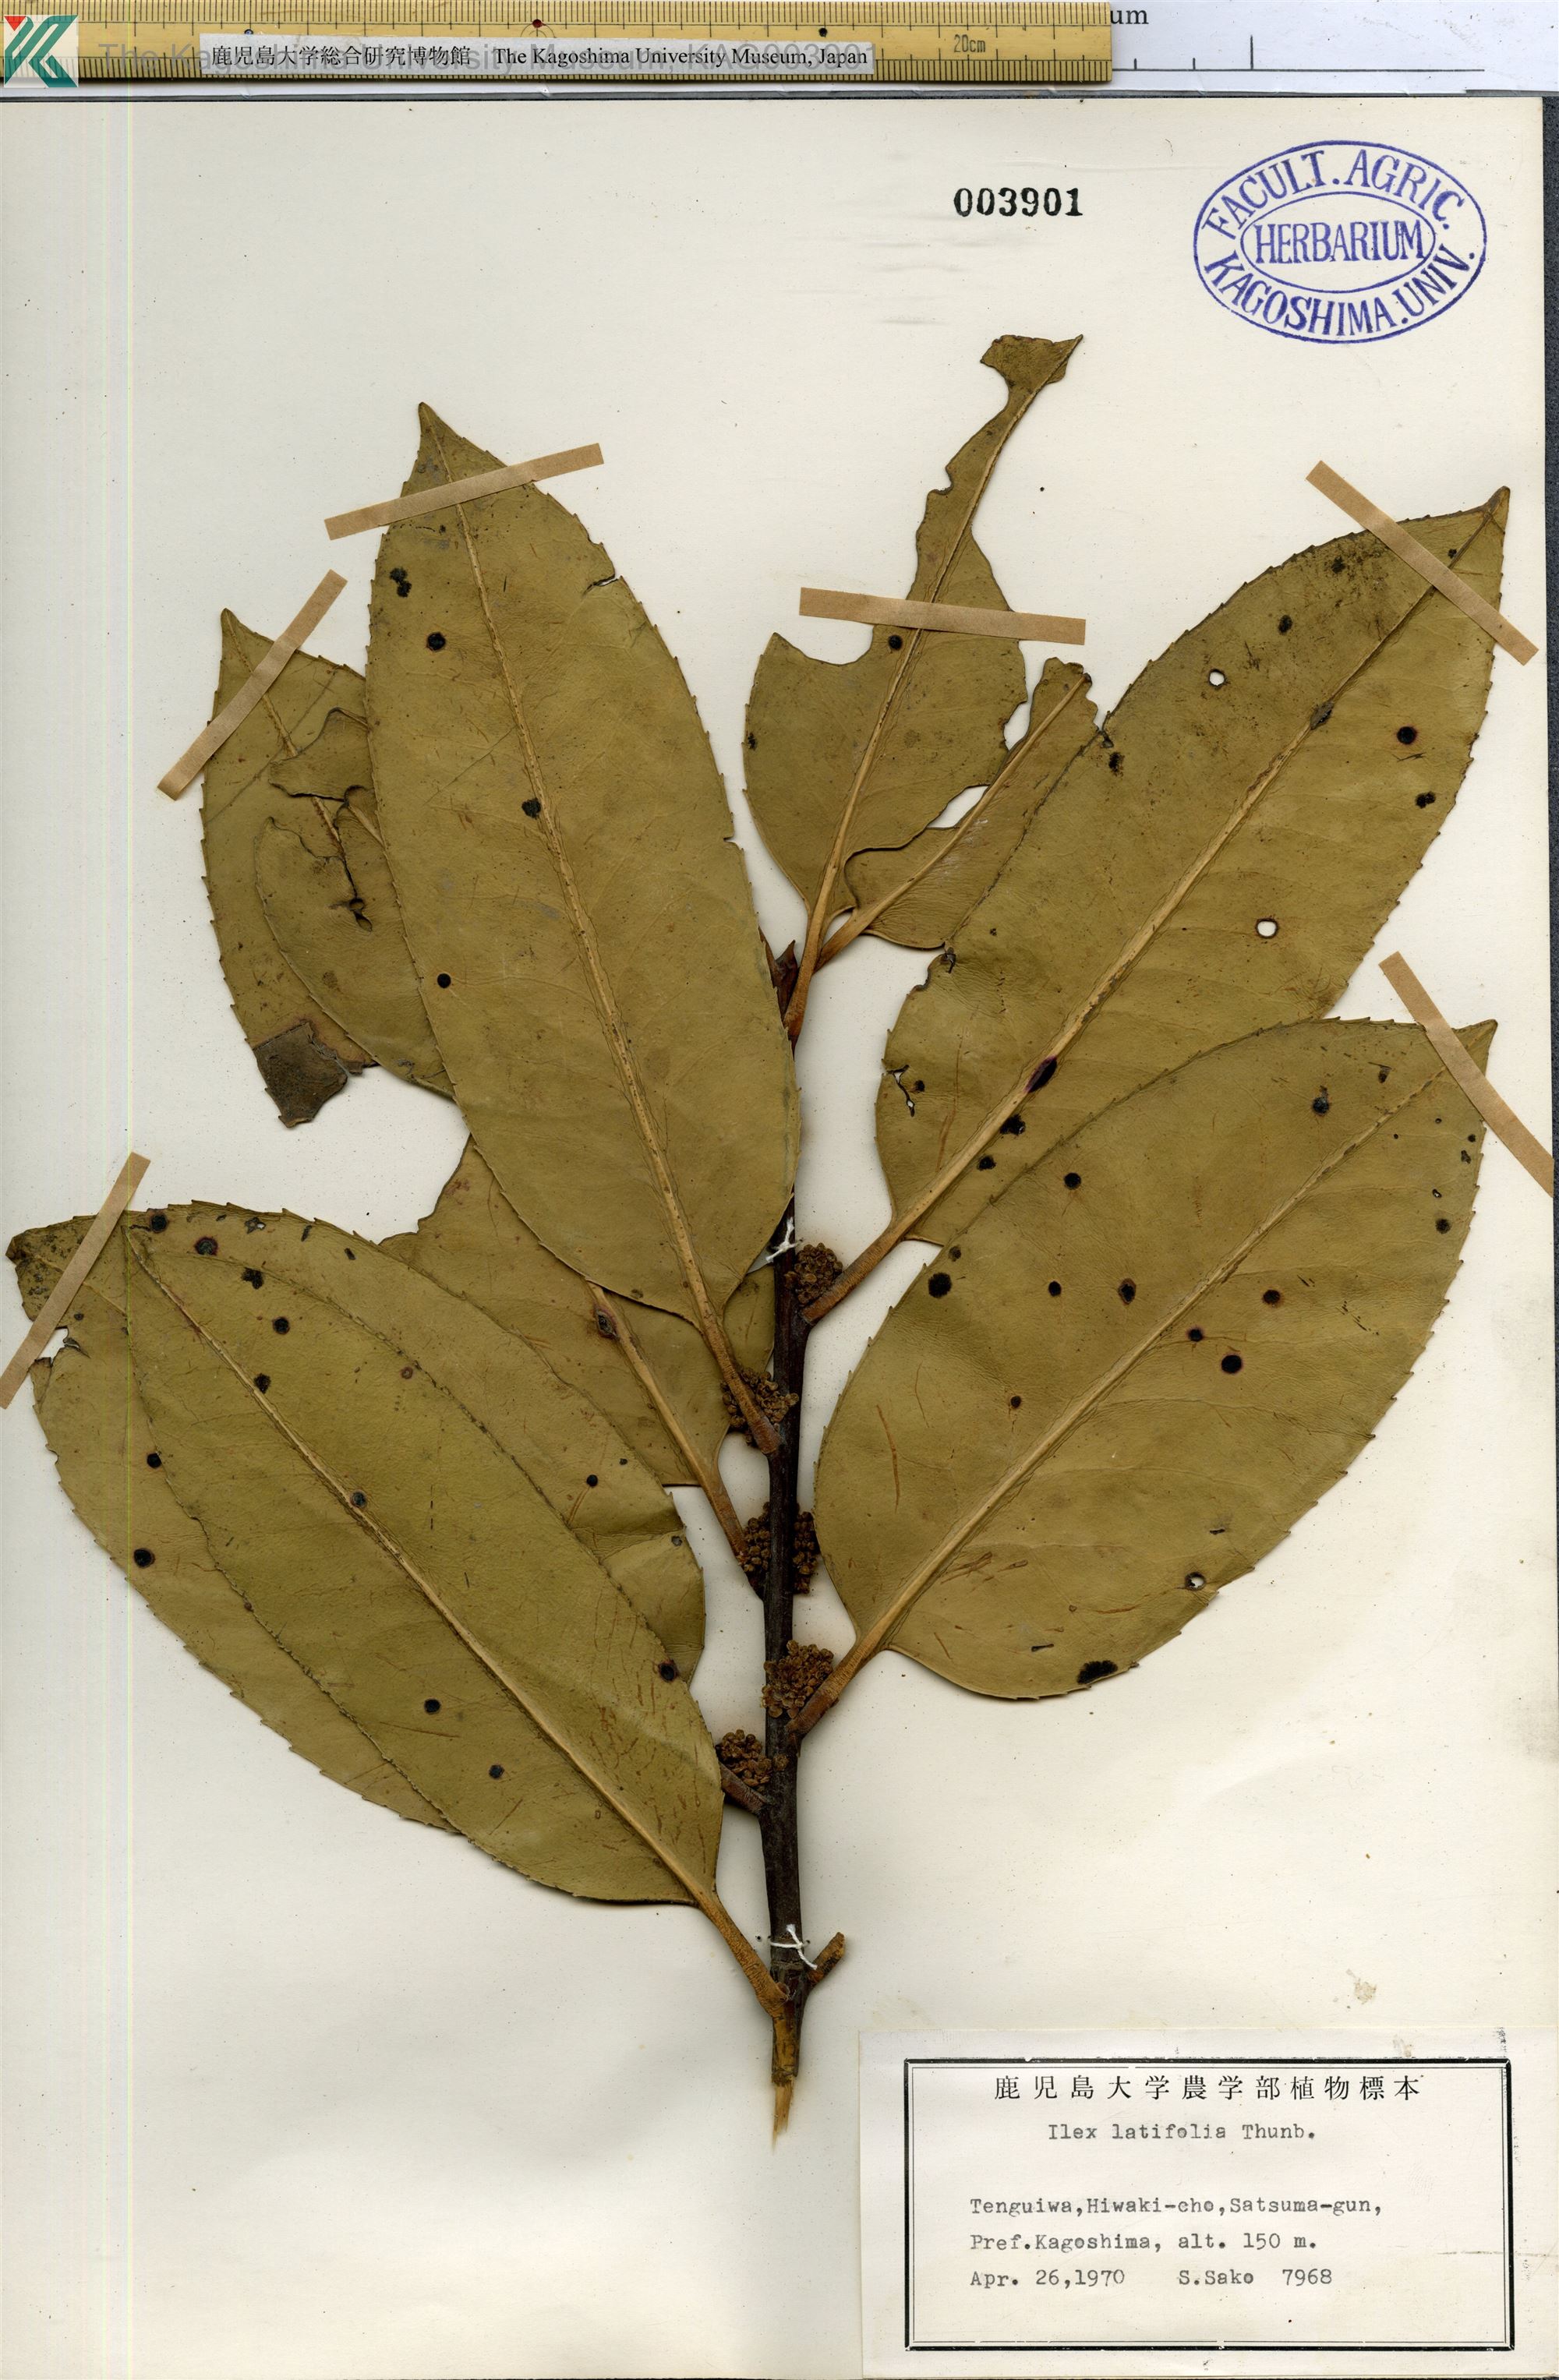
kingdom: Plantae
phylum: Tracheophyta
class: Magnoliopsida
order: Aquifoliales
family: Aquifoliaceae
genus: Ilex
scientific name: Ilex latifolia
